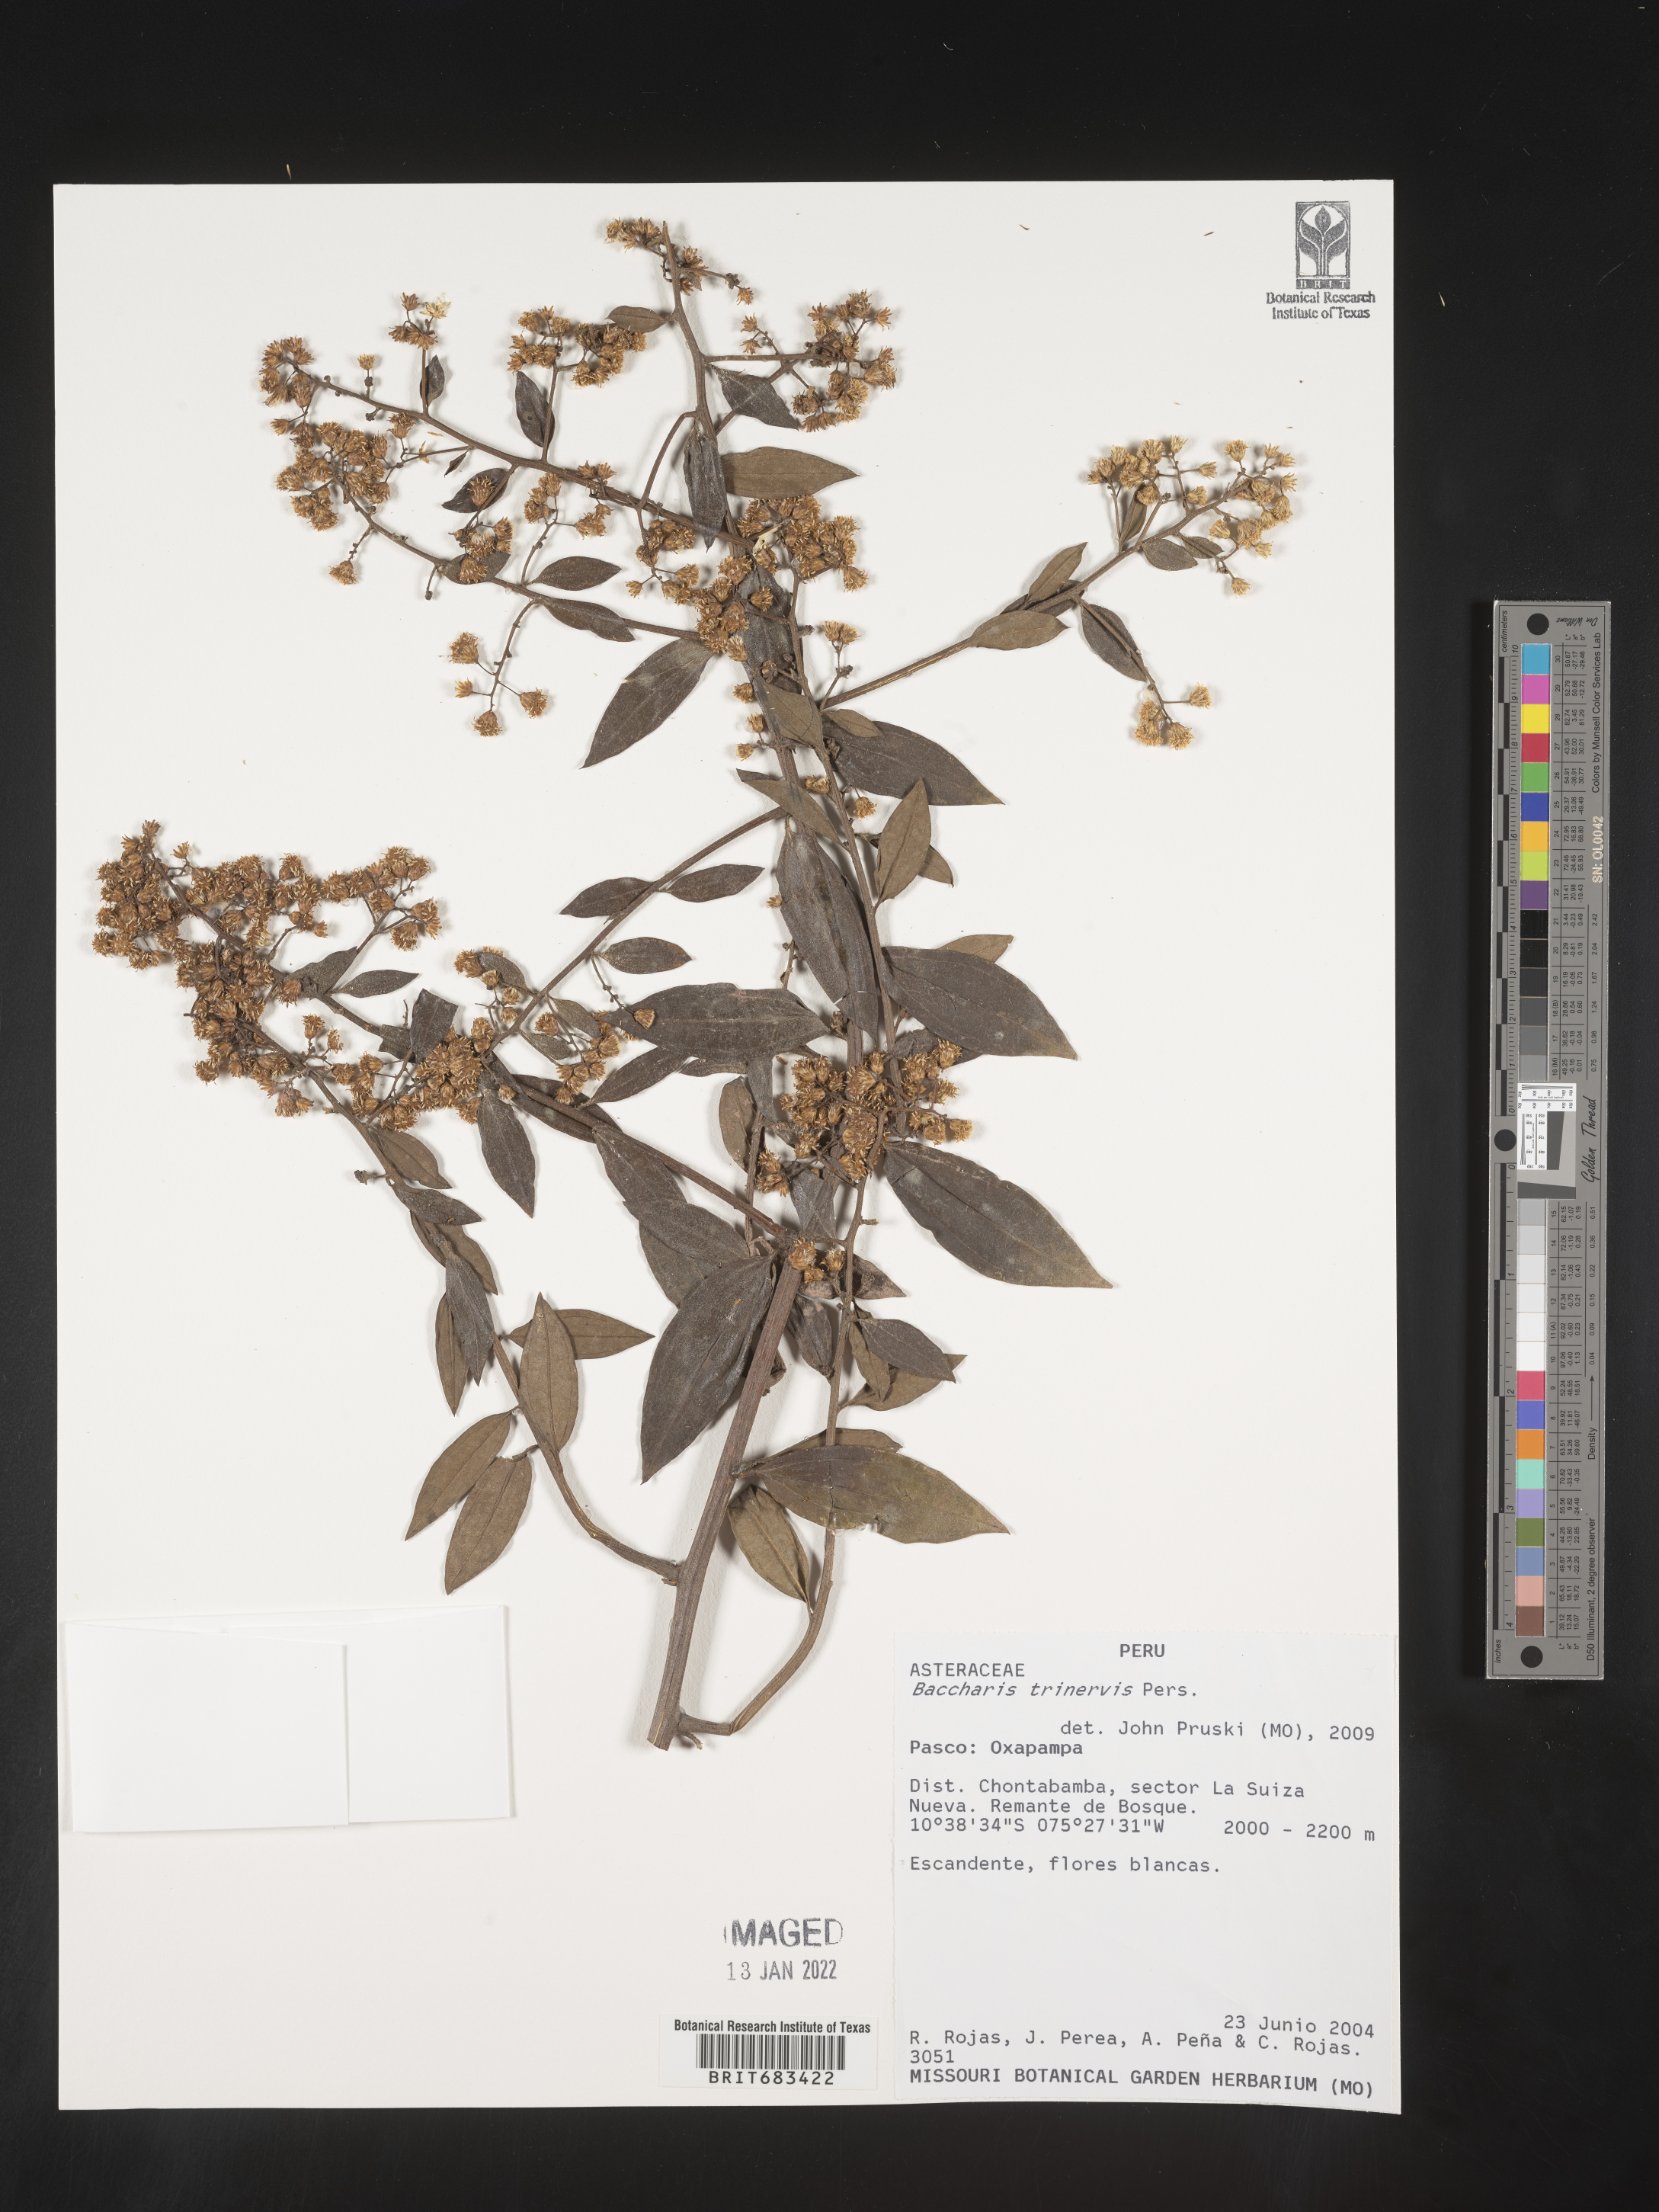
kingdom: Plantae
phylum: Tracheophyta
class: Magnoliopsida
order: Asterales
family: Asteraceae
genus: Baccharis
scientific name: Baccharis trinervis
